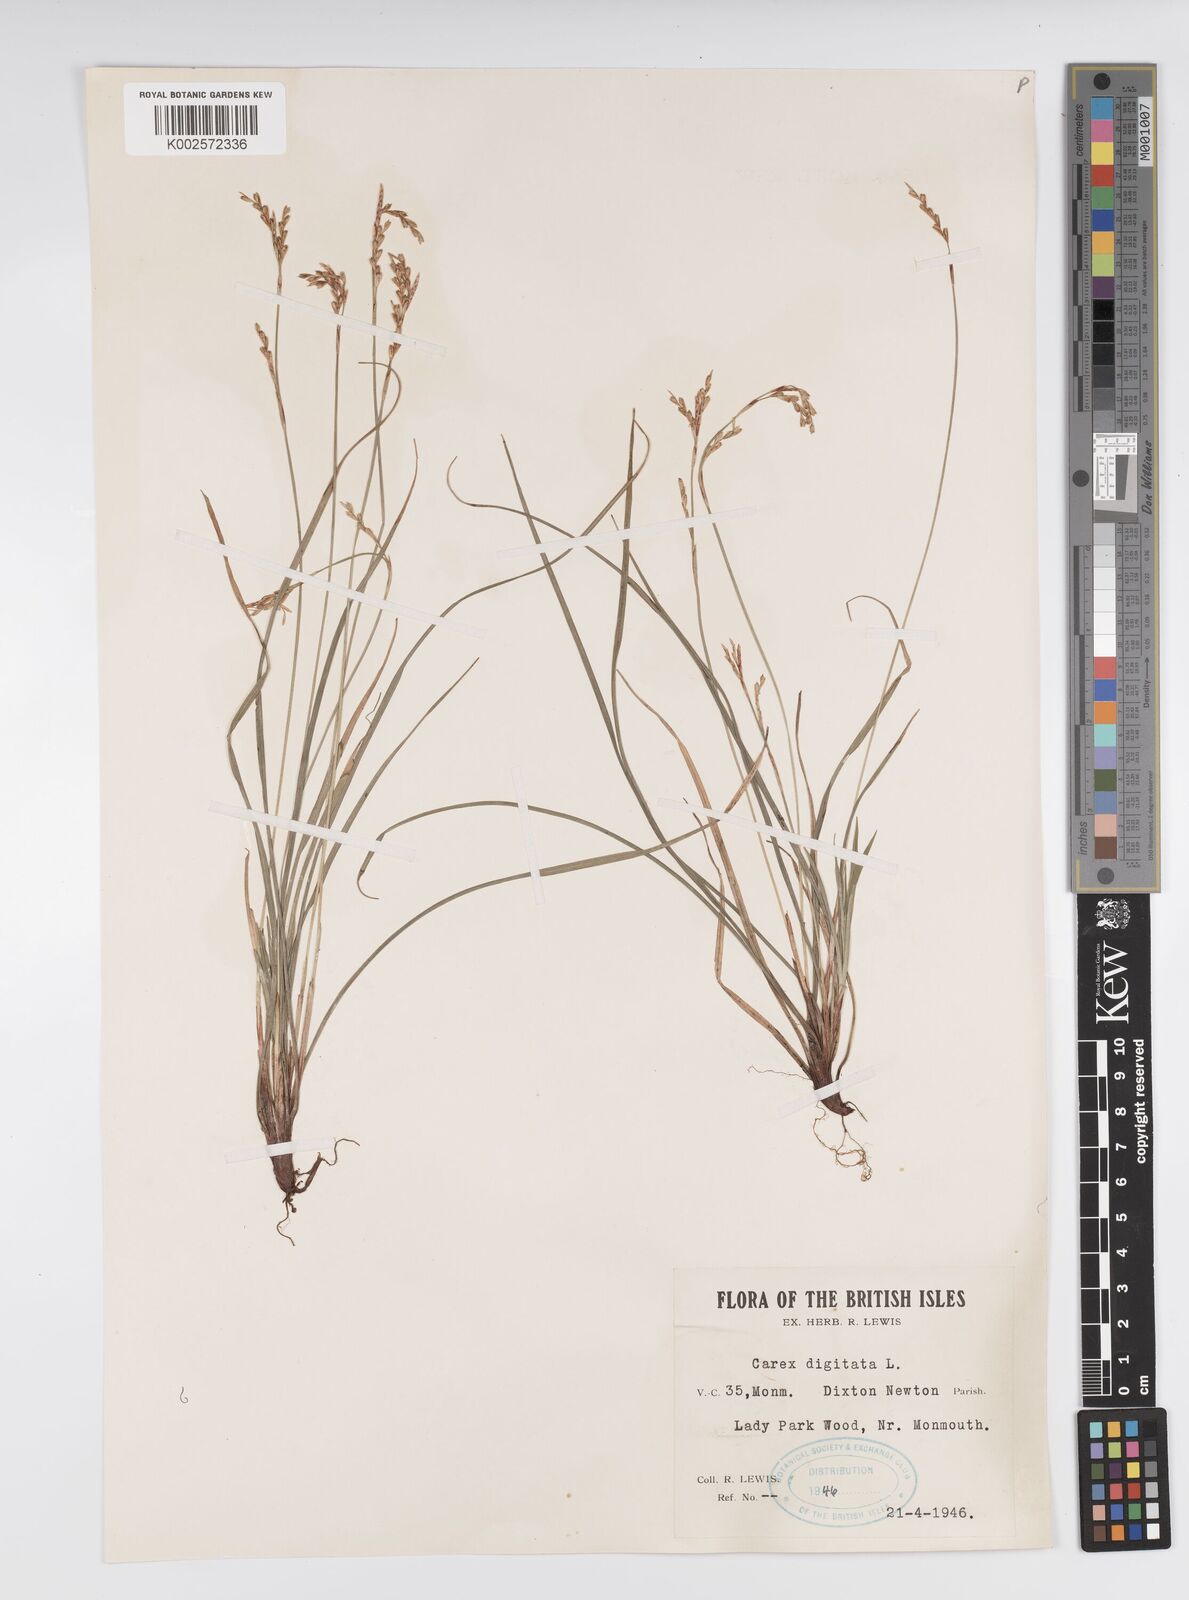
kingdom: Plantae
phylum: Tracheophyta
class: Liliopsida
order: Poales
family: Cyperaceae
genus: Carex
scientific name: Carex digitata
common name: Fingered sedge
